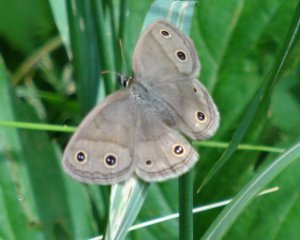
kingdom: Animalia
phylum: Arthropoda
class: Insecta
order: Lepidoptera
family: Nymphalidae
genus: Euptychia
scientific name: Euptychia cymela
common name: Little Wood Satyr
